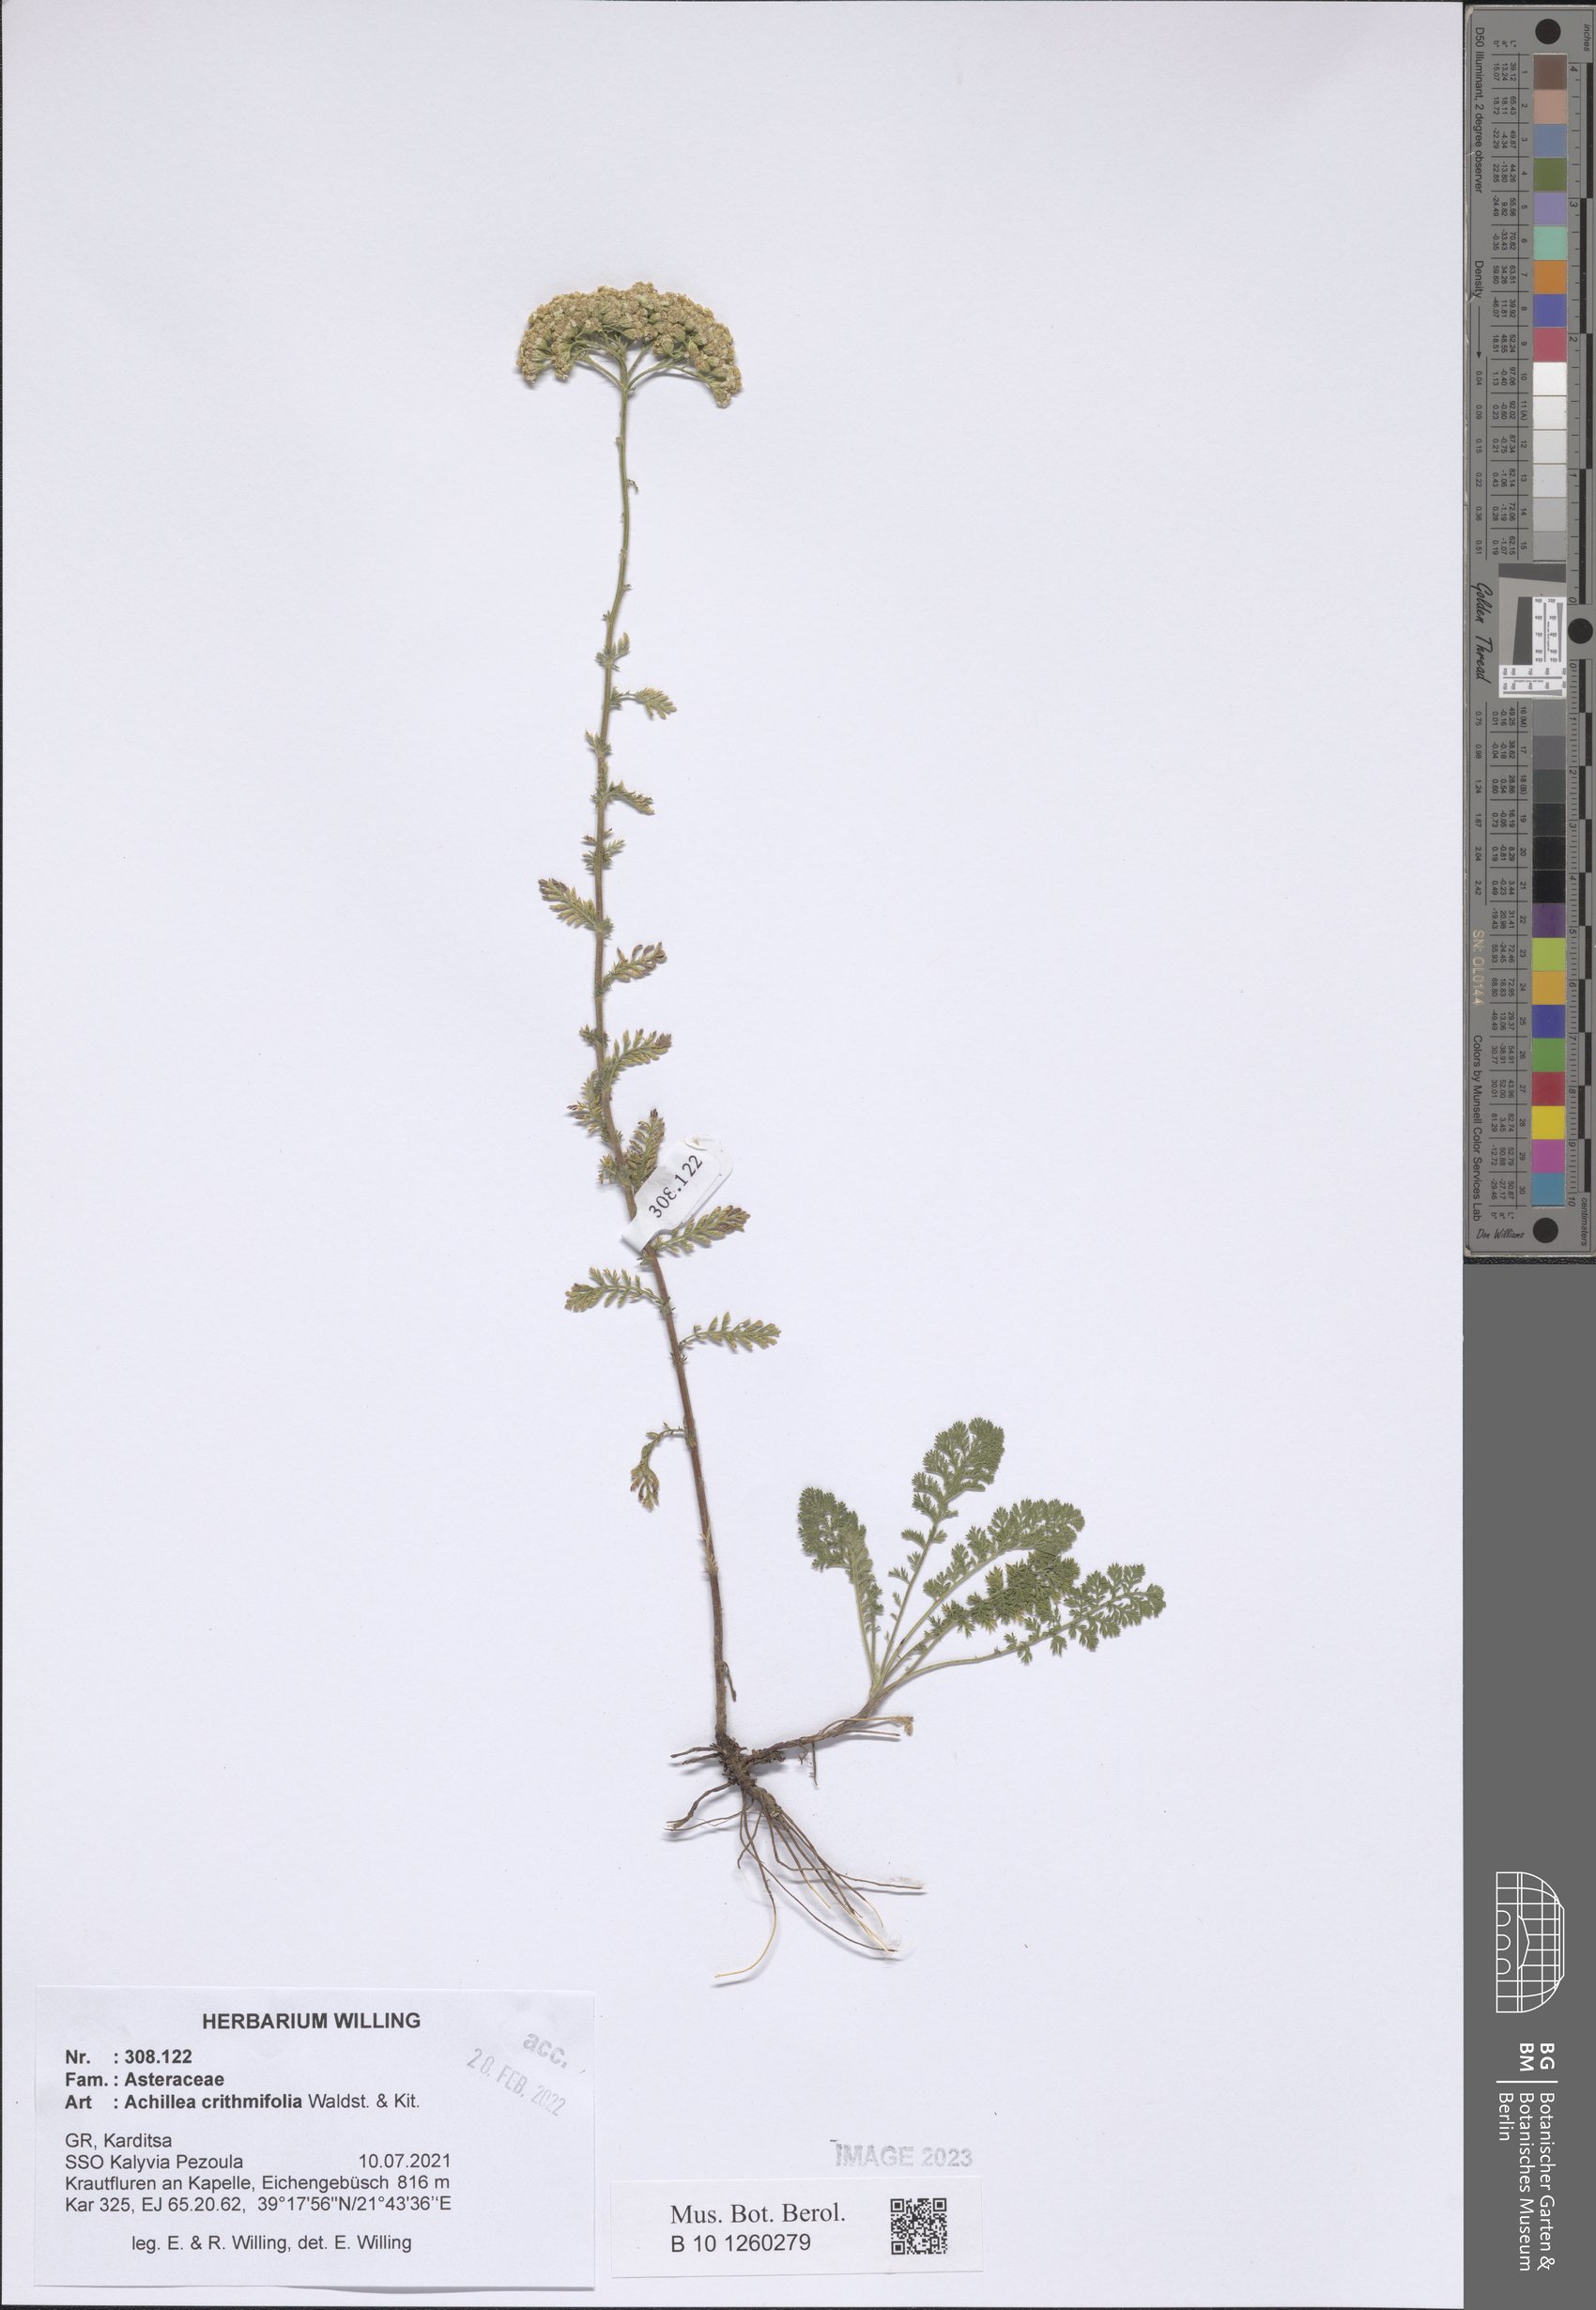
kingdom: Plantae
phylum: Tracheophyta
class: Magnoliopsida
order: Asterales
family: Asteraceae
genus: Achillea
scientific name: Achillea crithmifolia
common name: Yarrow
